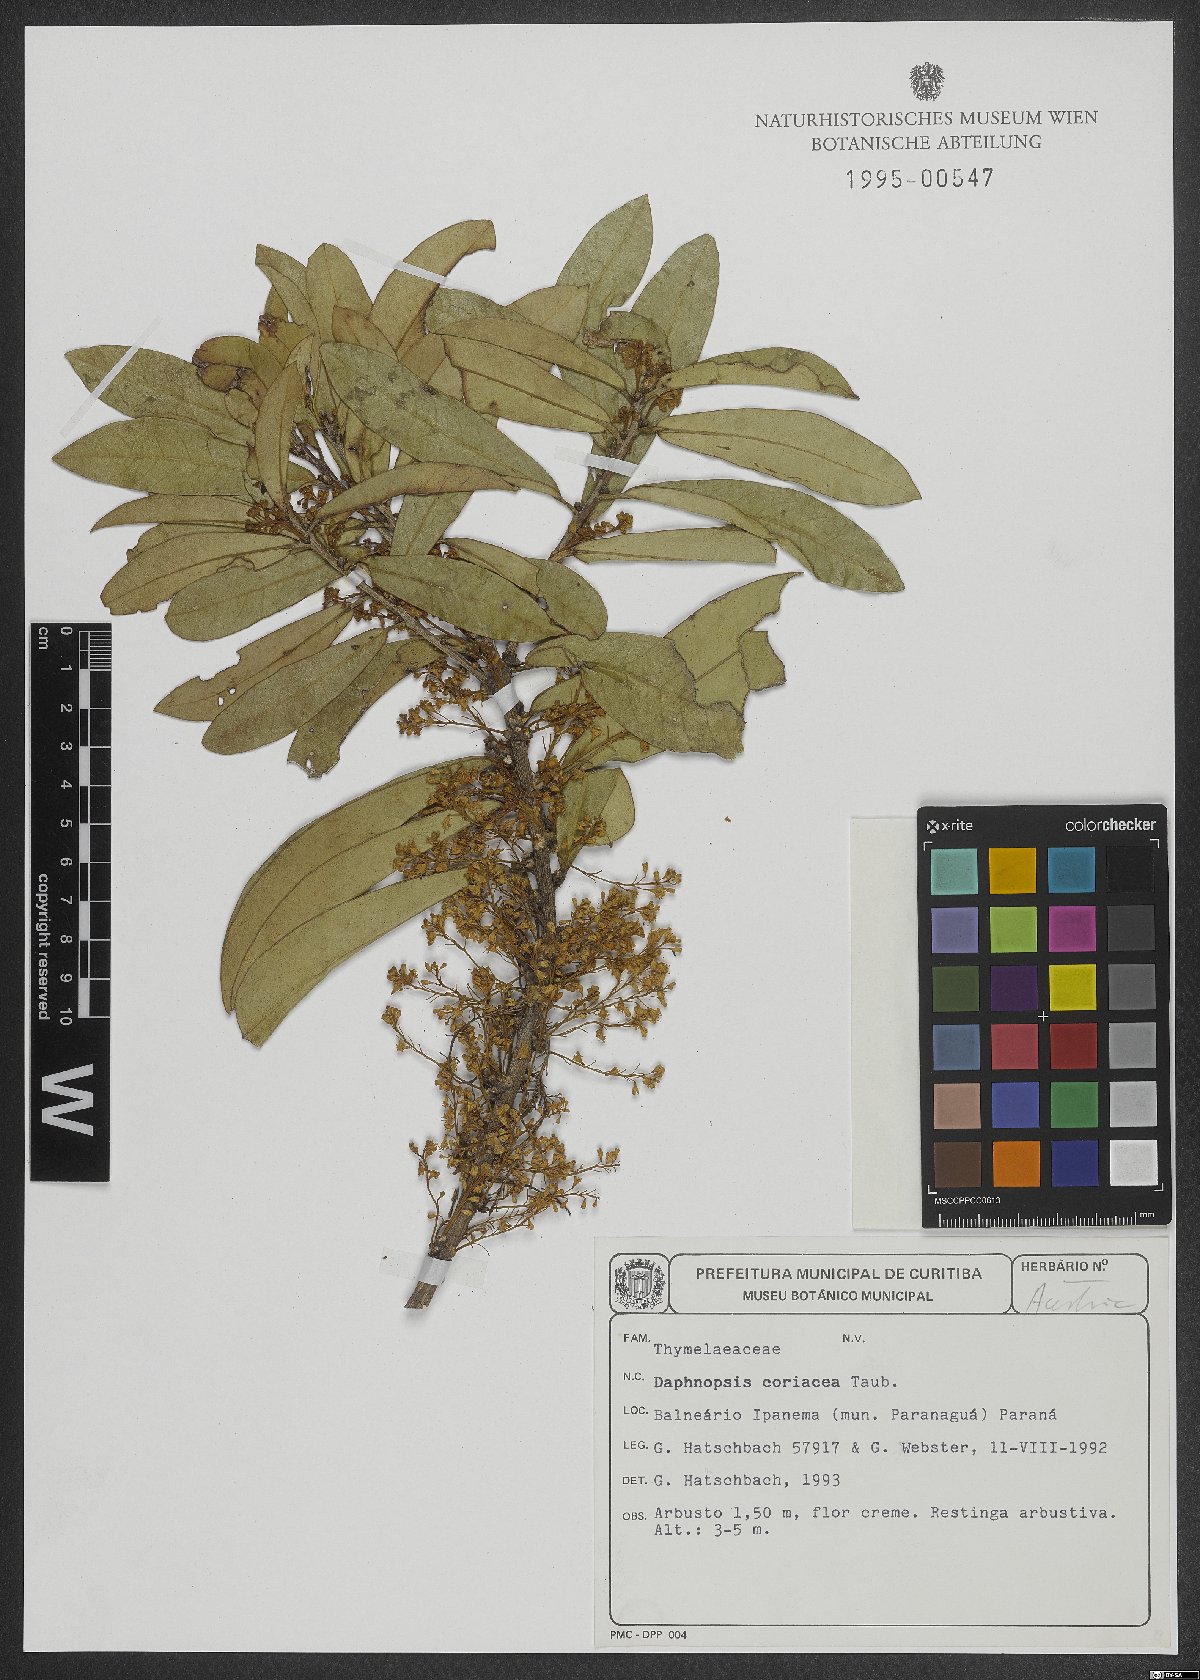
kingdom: Plantae
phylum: Tracheophyta
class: Magnoliopsida
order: Malvales
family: Thymelaeaceae
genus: Daphnopsis
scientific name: Daphnopsis coriacea
